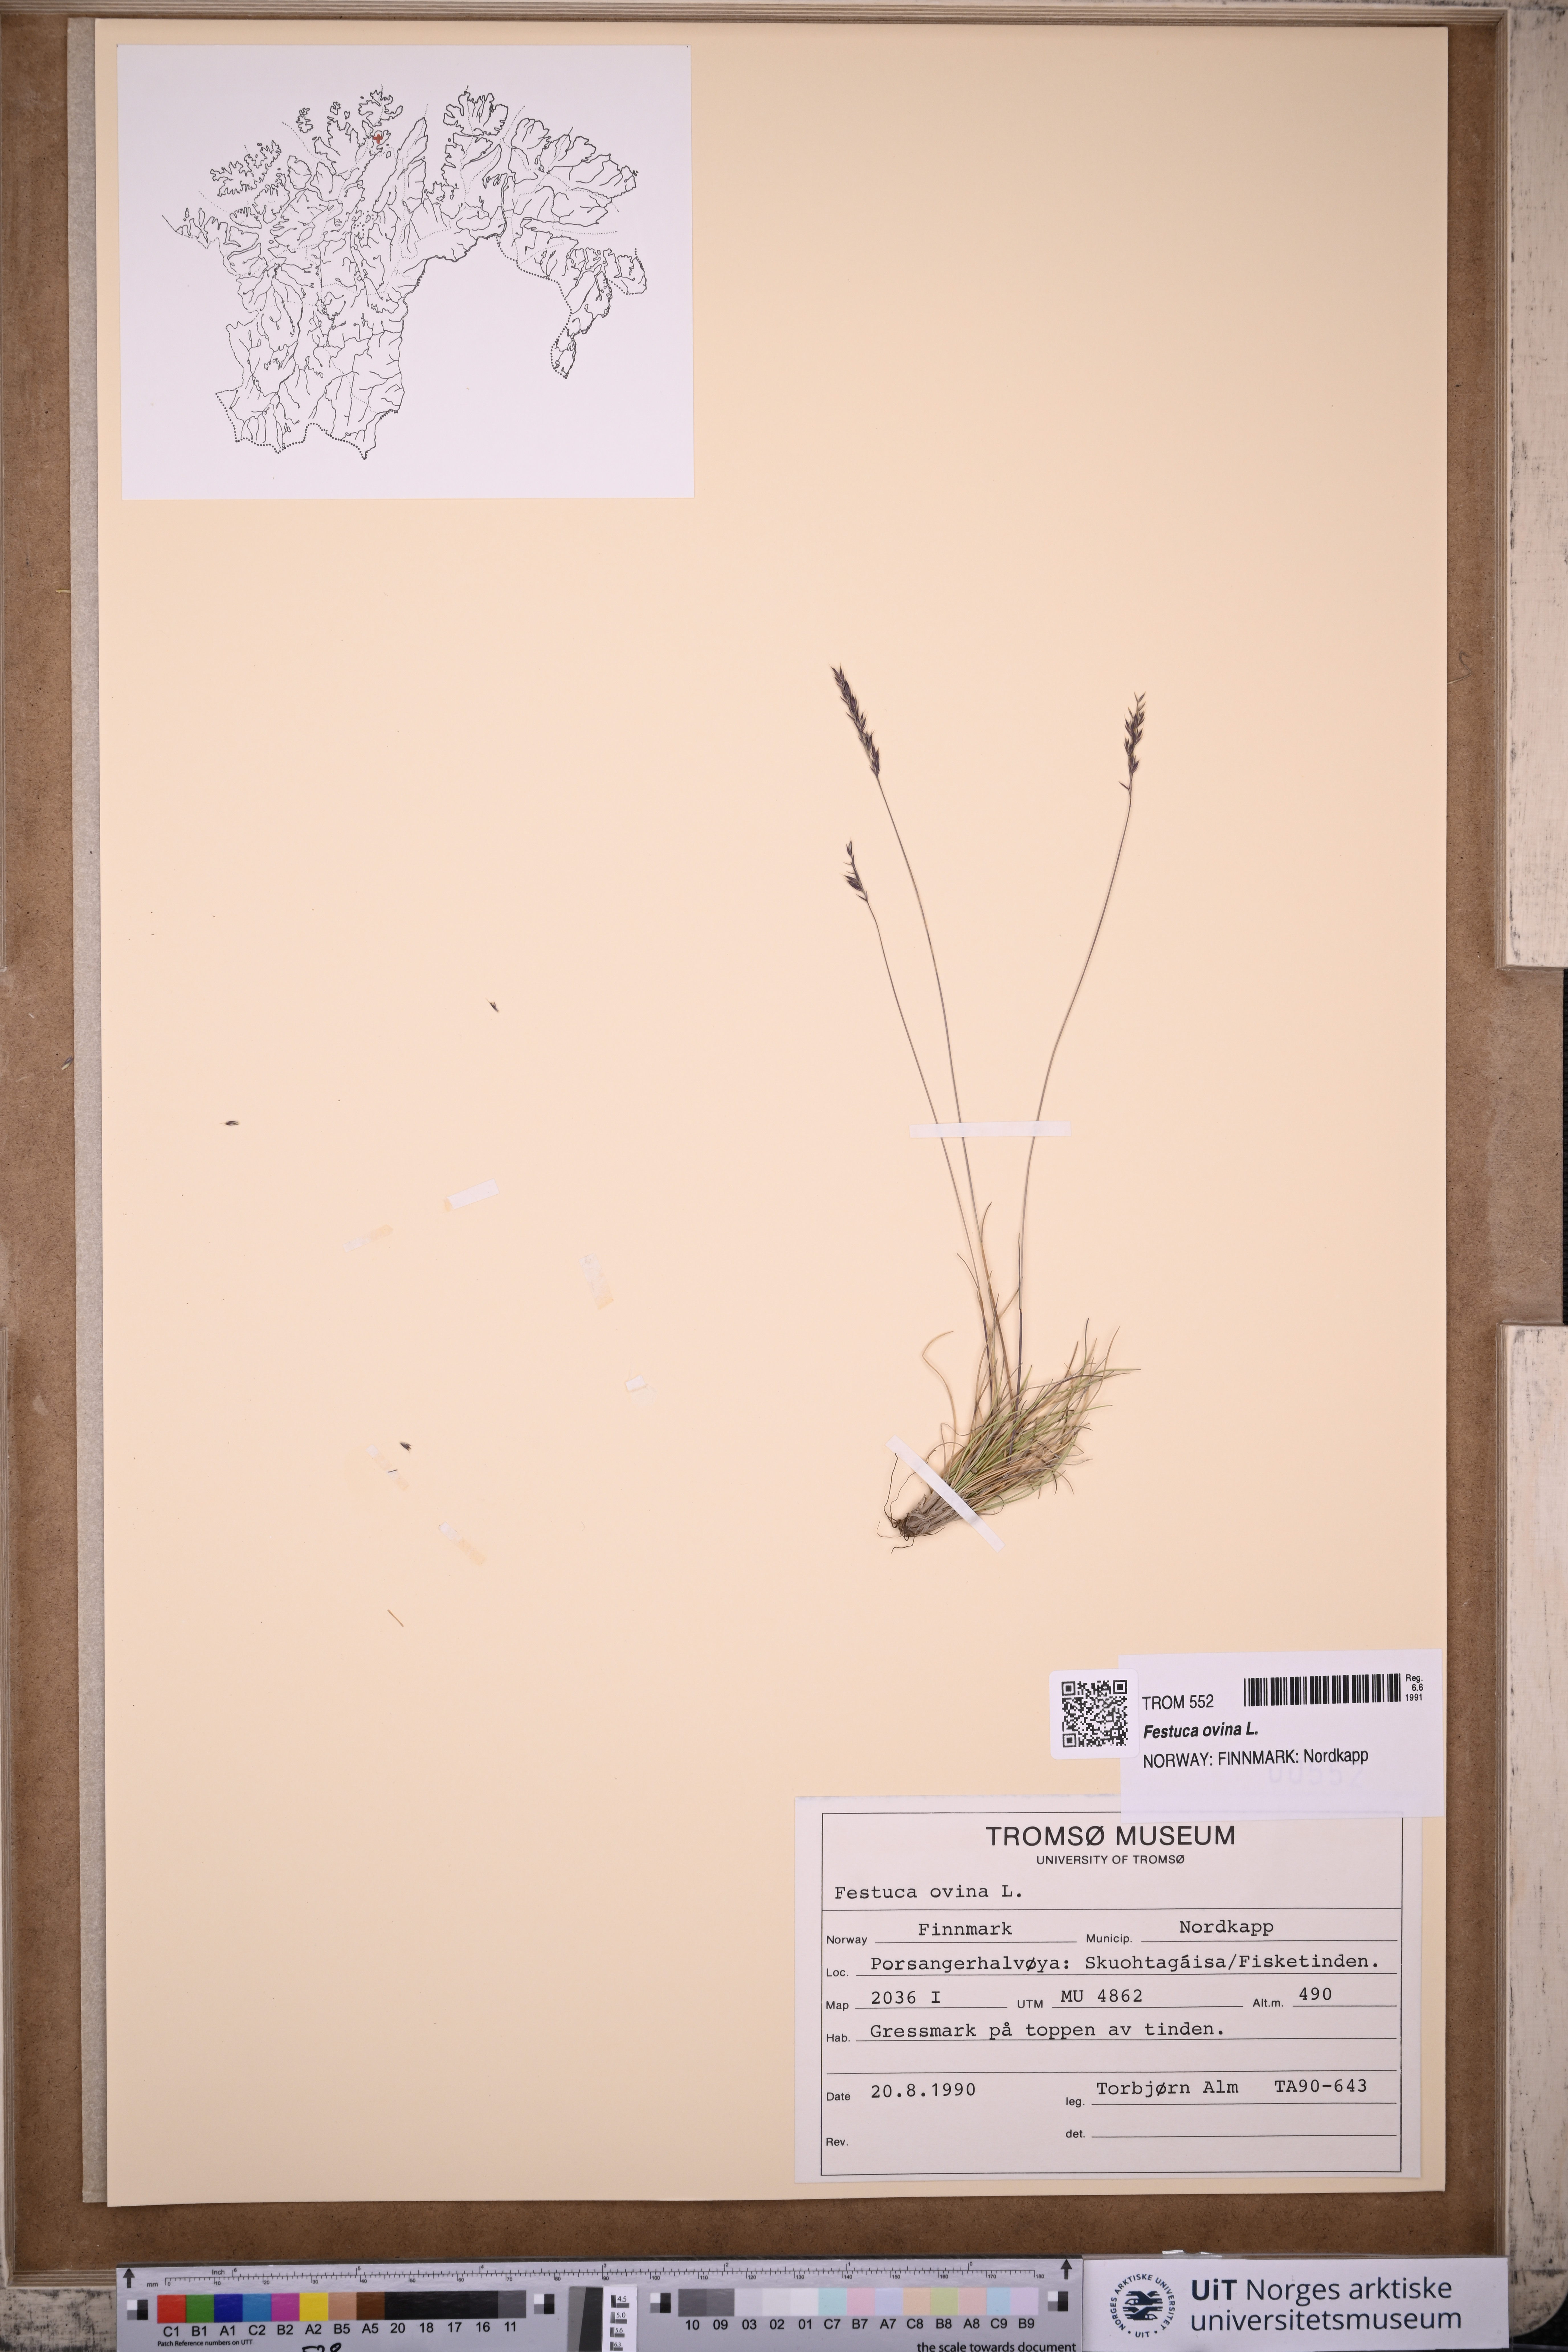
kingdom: Plantae
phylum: Tracheophyta
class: Liliopsida
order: Poales
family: Poaceae
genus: Festuca
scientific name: Festuca ovina
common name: Sheep fescue
